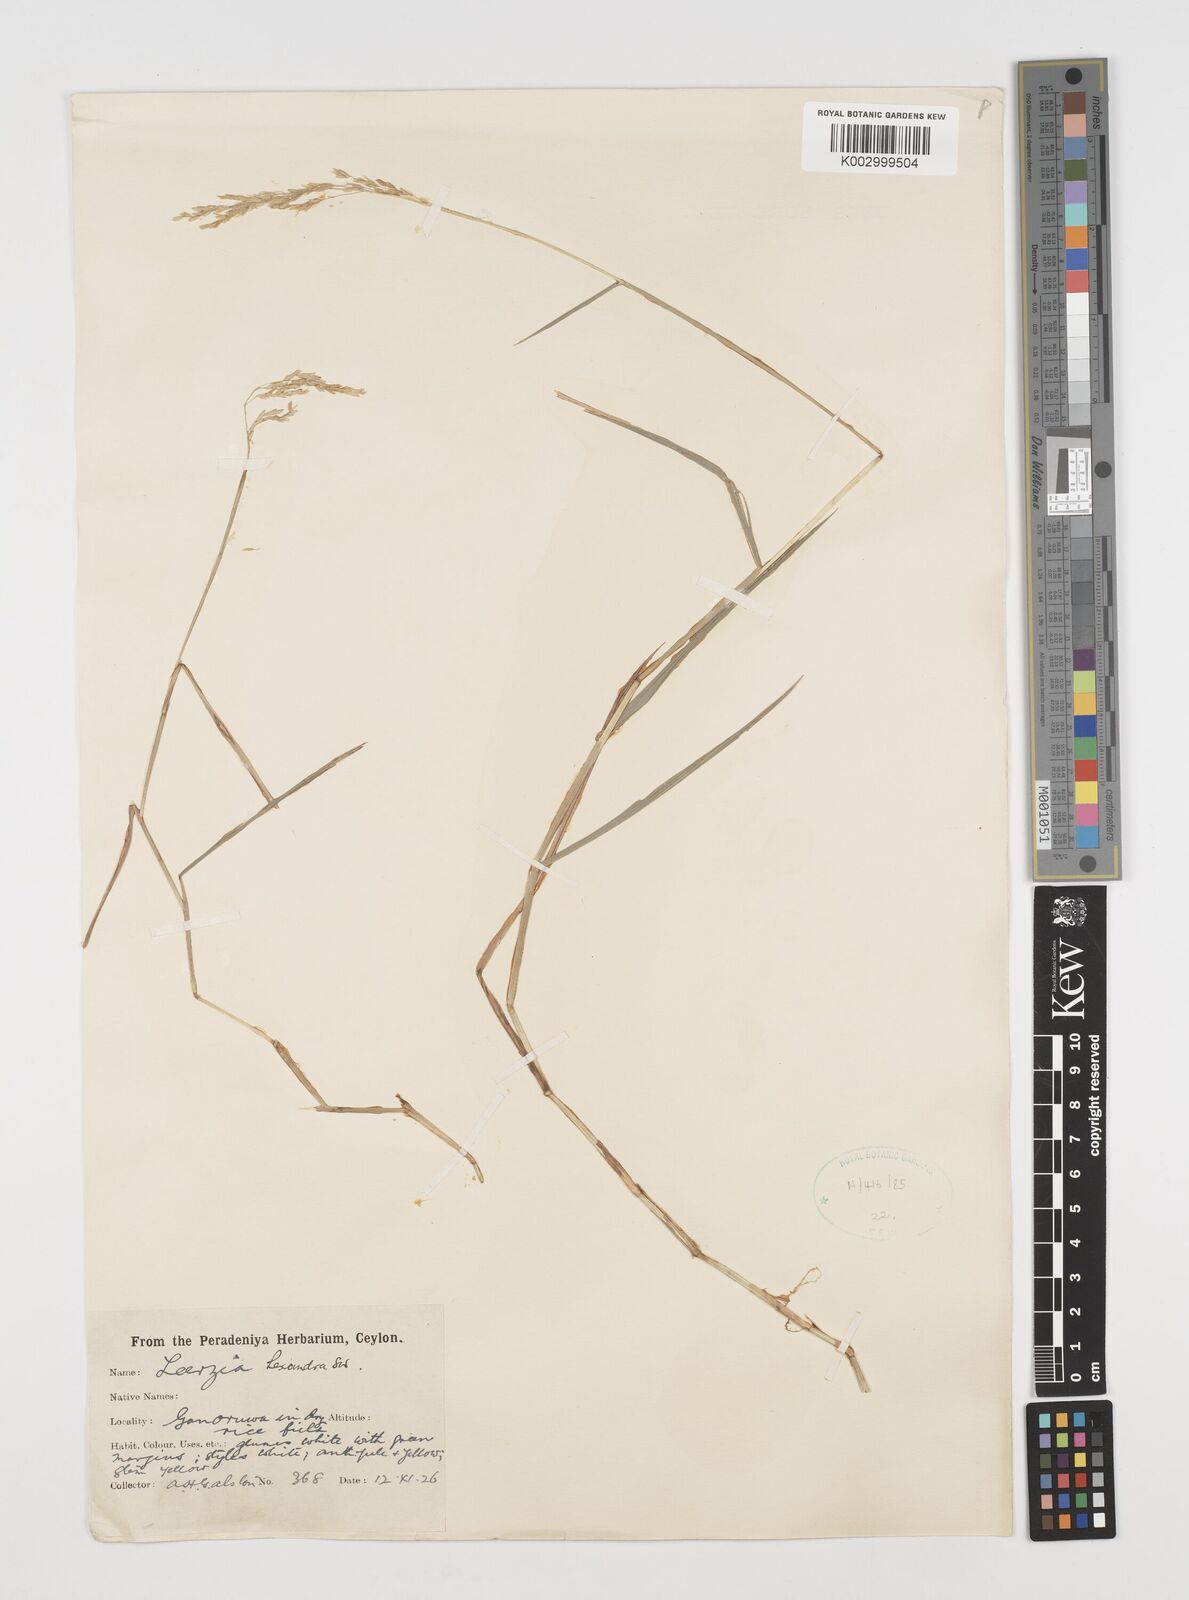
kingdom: Plantae
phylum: Tracheophyta
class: Liliopsida
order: Poales
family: Poaceae
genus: Leersia
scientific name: Leersia hexandra
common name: Southern cut grass
